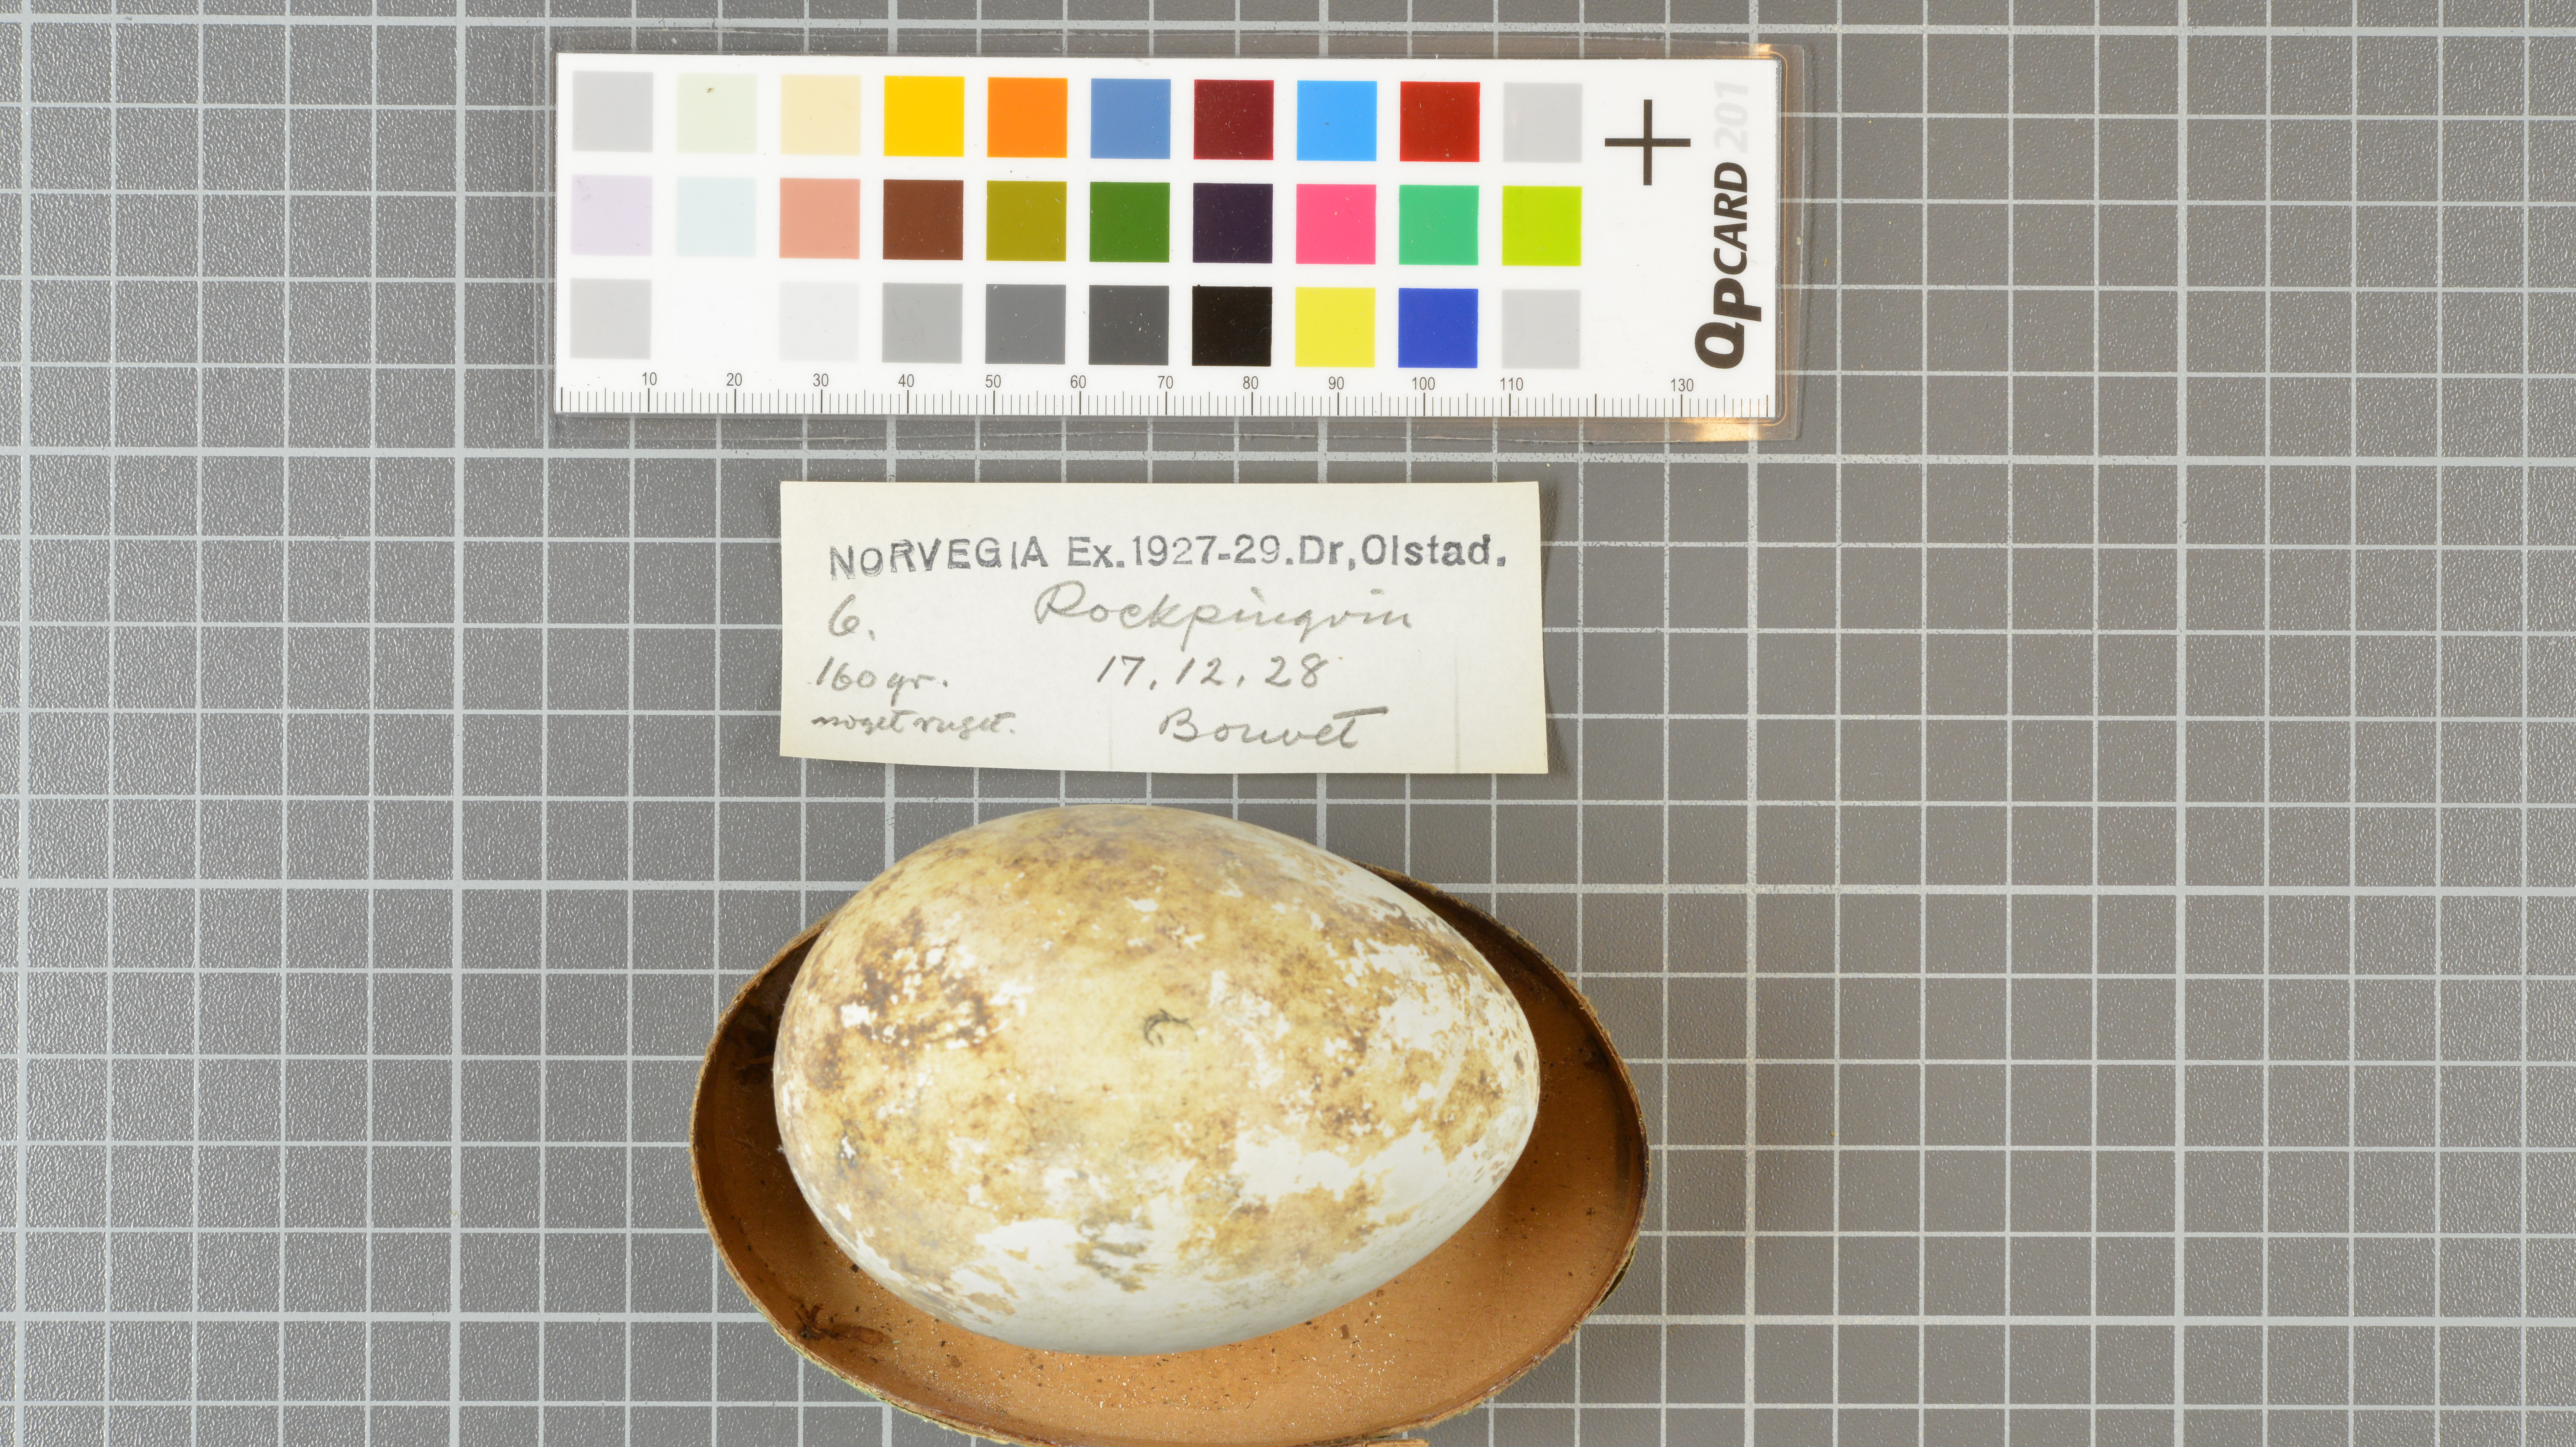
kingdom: Animalia
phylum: Chordata
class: Aves
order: Sphenisciformes
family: Spheniscidae
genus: Eudyptes
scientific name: Eudyptes chrysolophus
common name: Macaroni penguin
